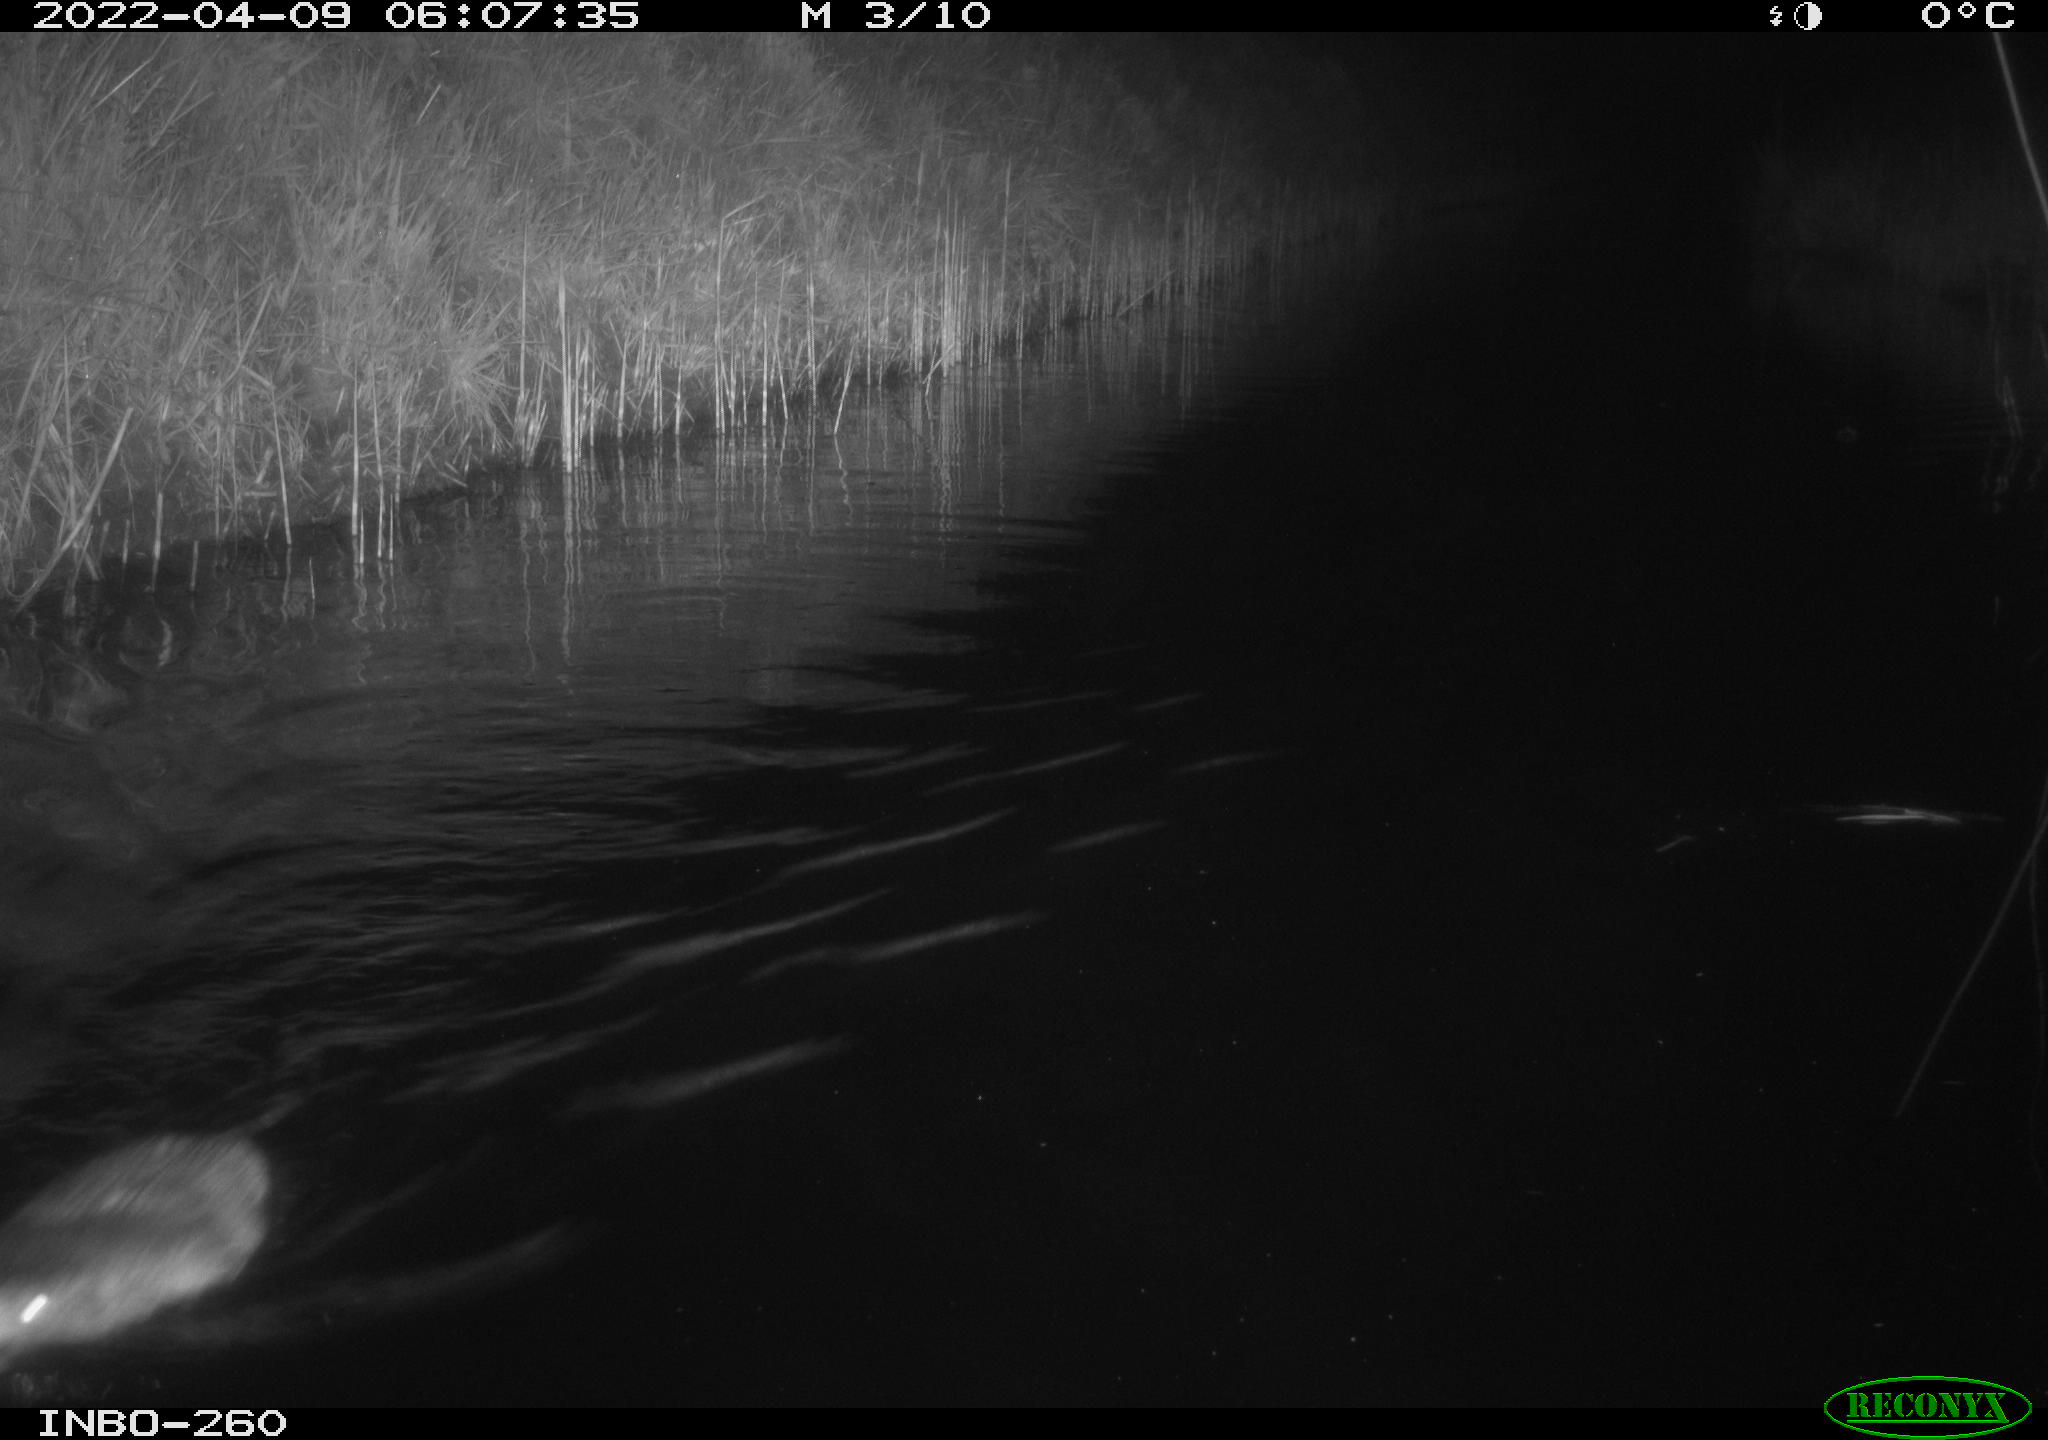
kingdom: Animalia
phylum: Chordata
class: Mammalia
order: Rodentia
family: Cricetidae
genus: Ondatra
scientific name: Ondatra zibethicus
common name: Muskrat
